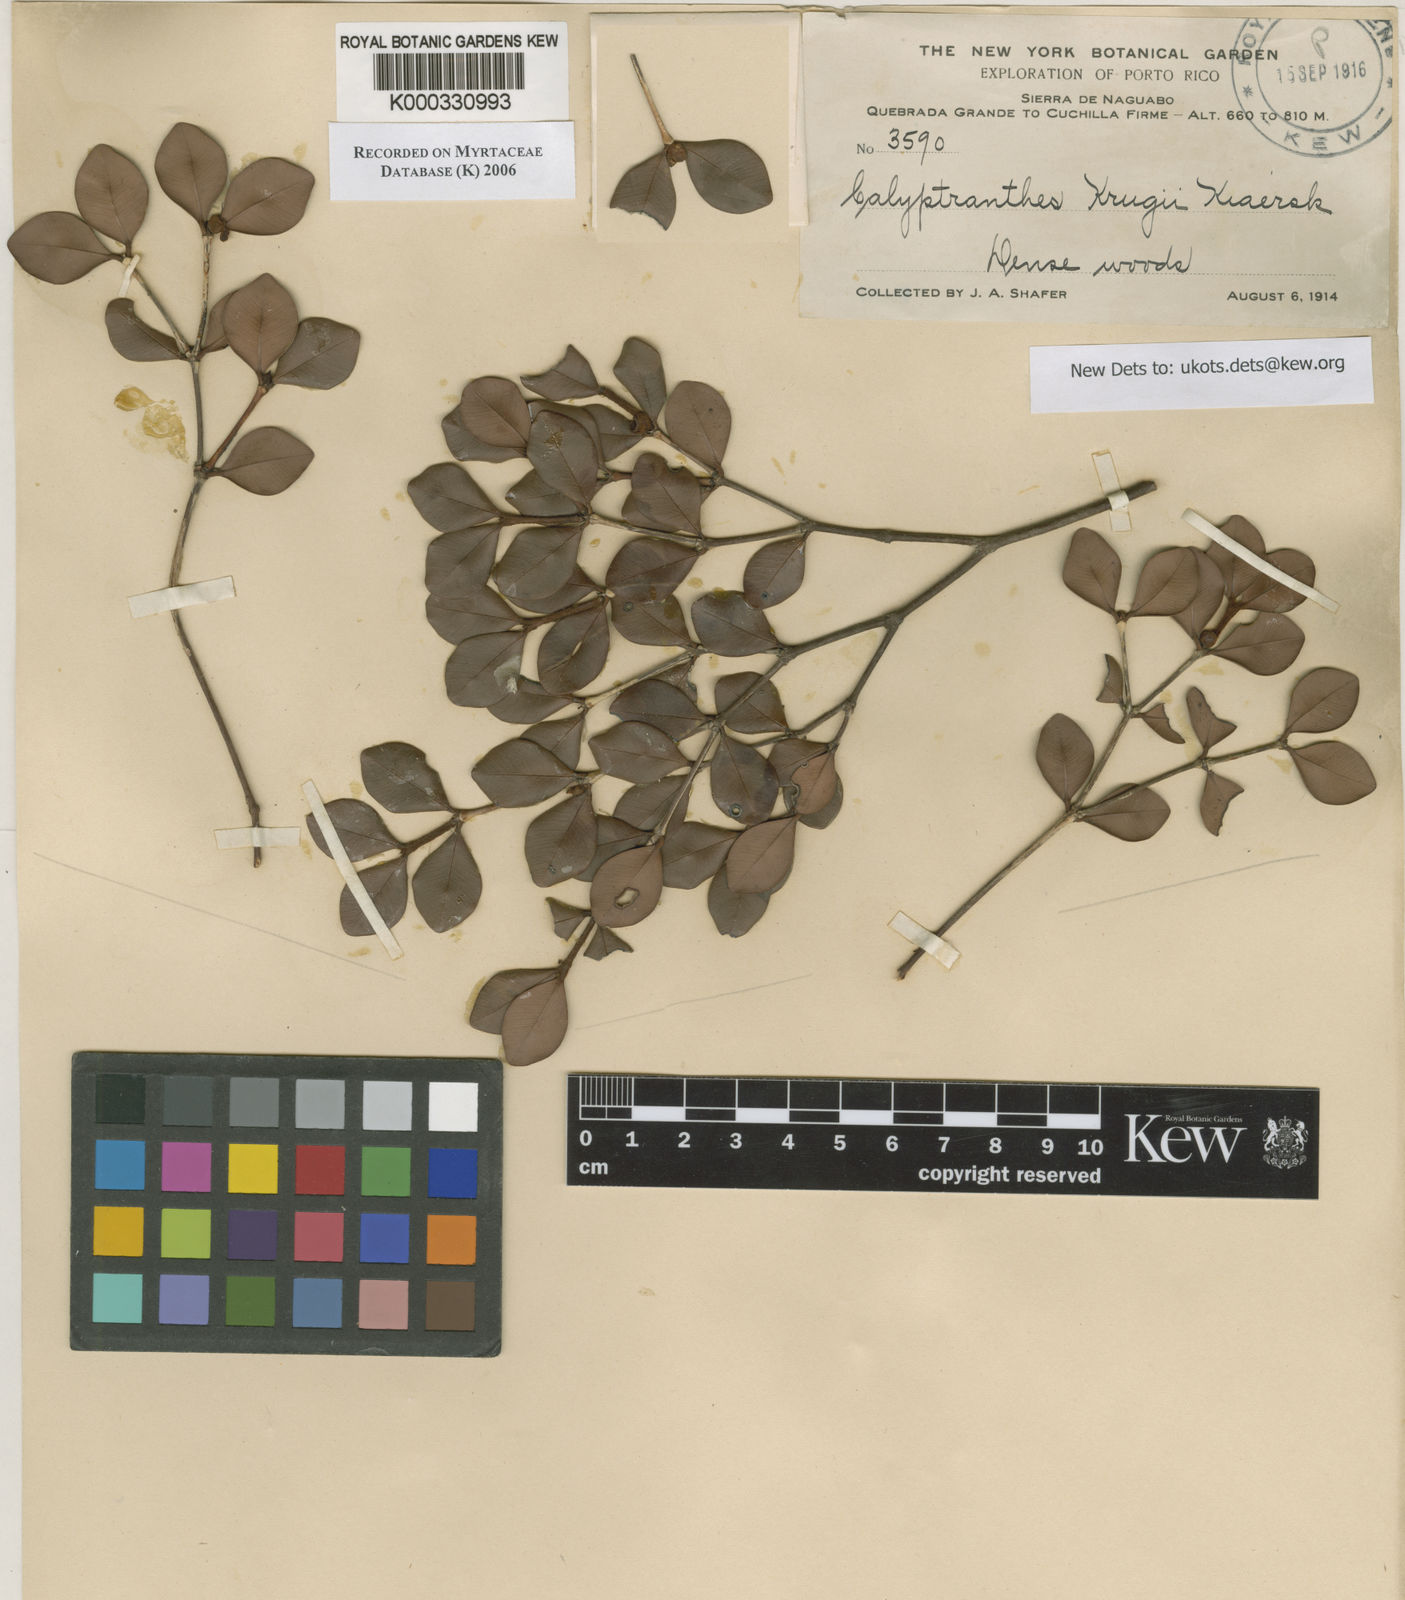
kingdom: Plantae
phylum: Tracheophyta
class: Magnoliopsida
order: Myrtales
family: Myrtaceae
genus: Myrcia
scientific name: Myrcia krugii
